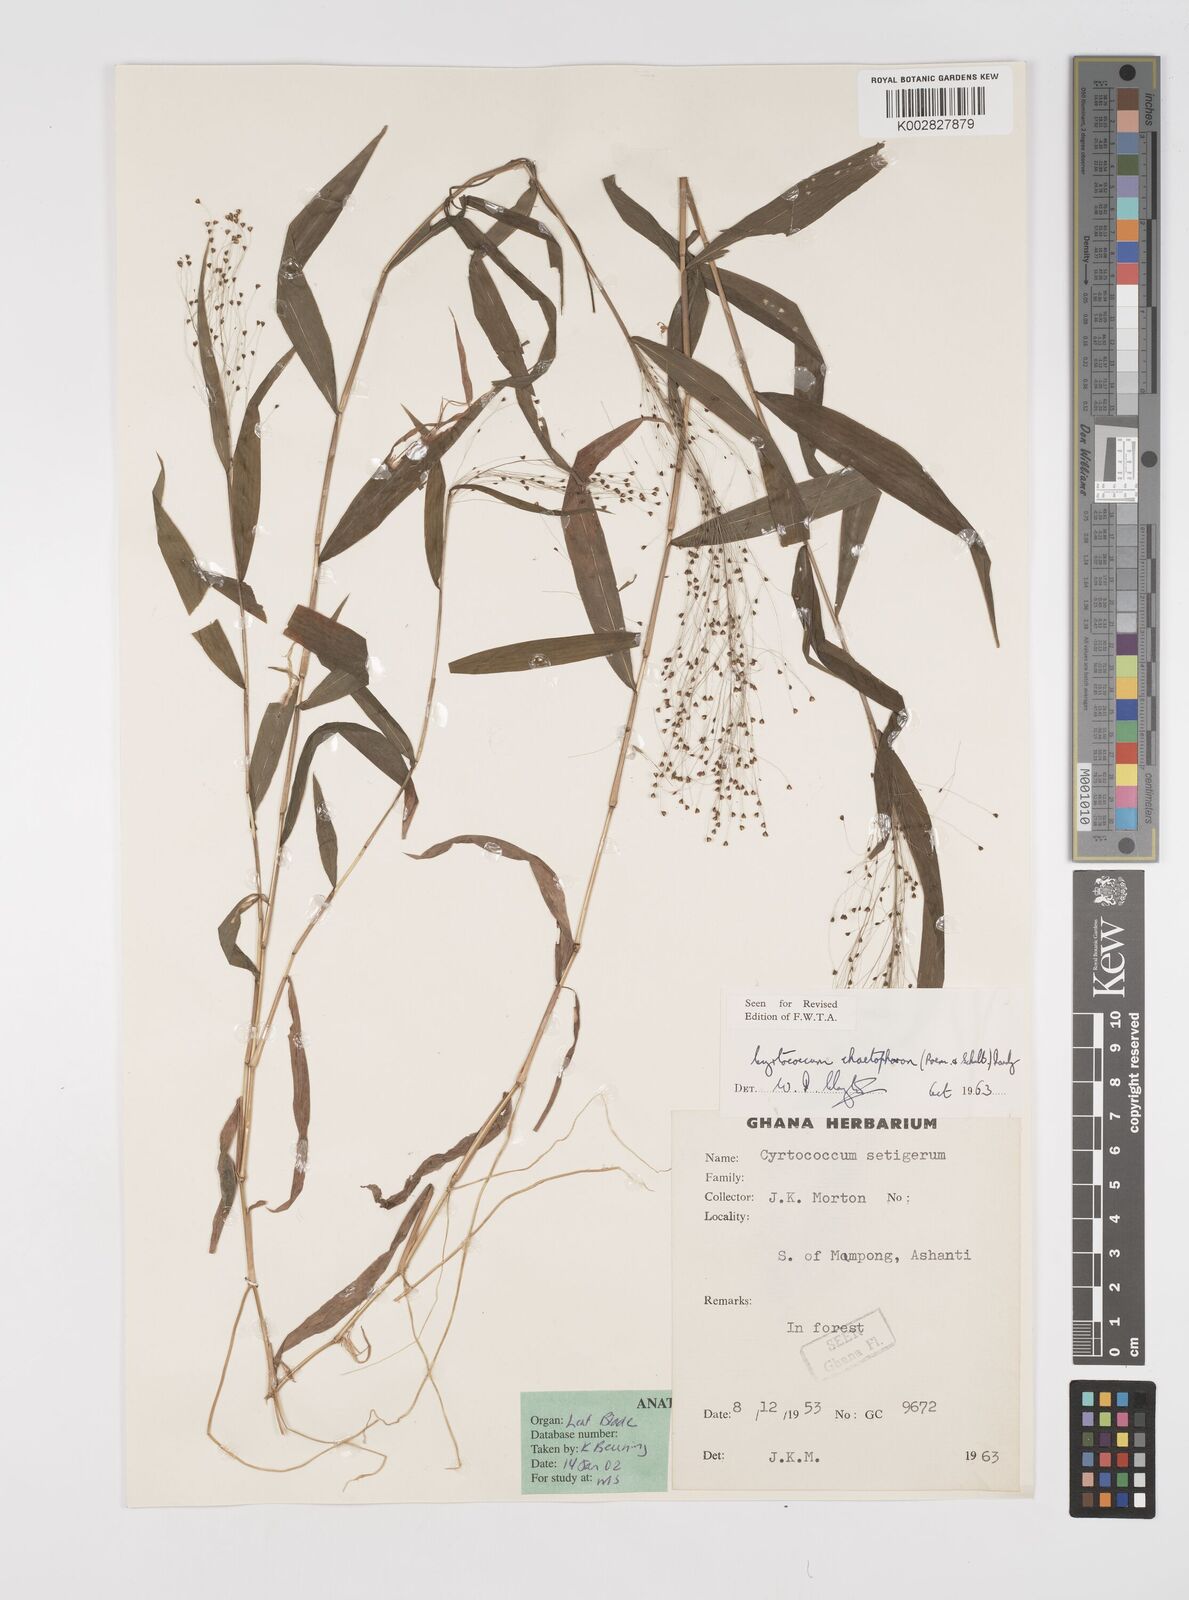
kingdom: Plantae
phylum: Tracheophyta
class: Liliopsida
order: Poales
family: Poaceae
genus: Cyrtococcum
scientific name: Cyrtococcum chaetophoron
